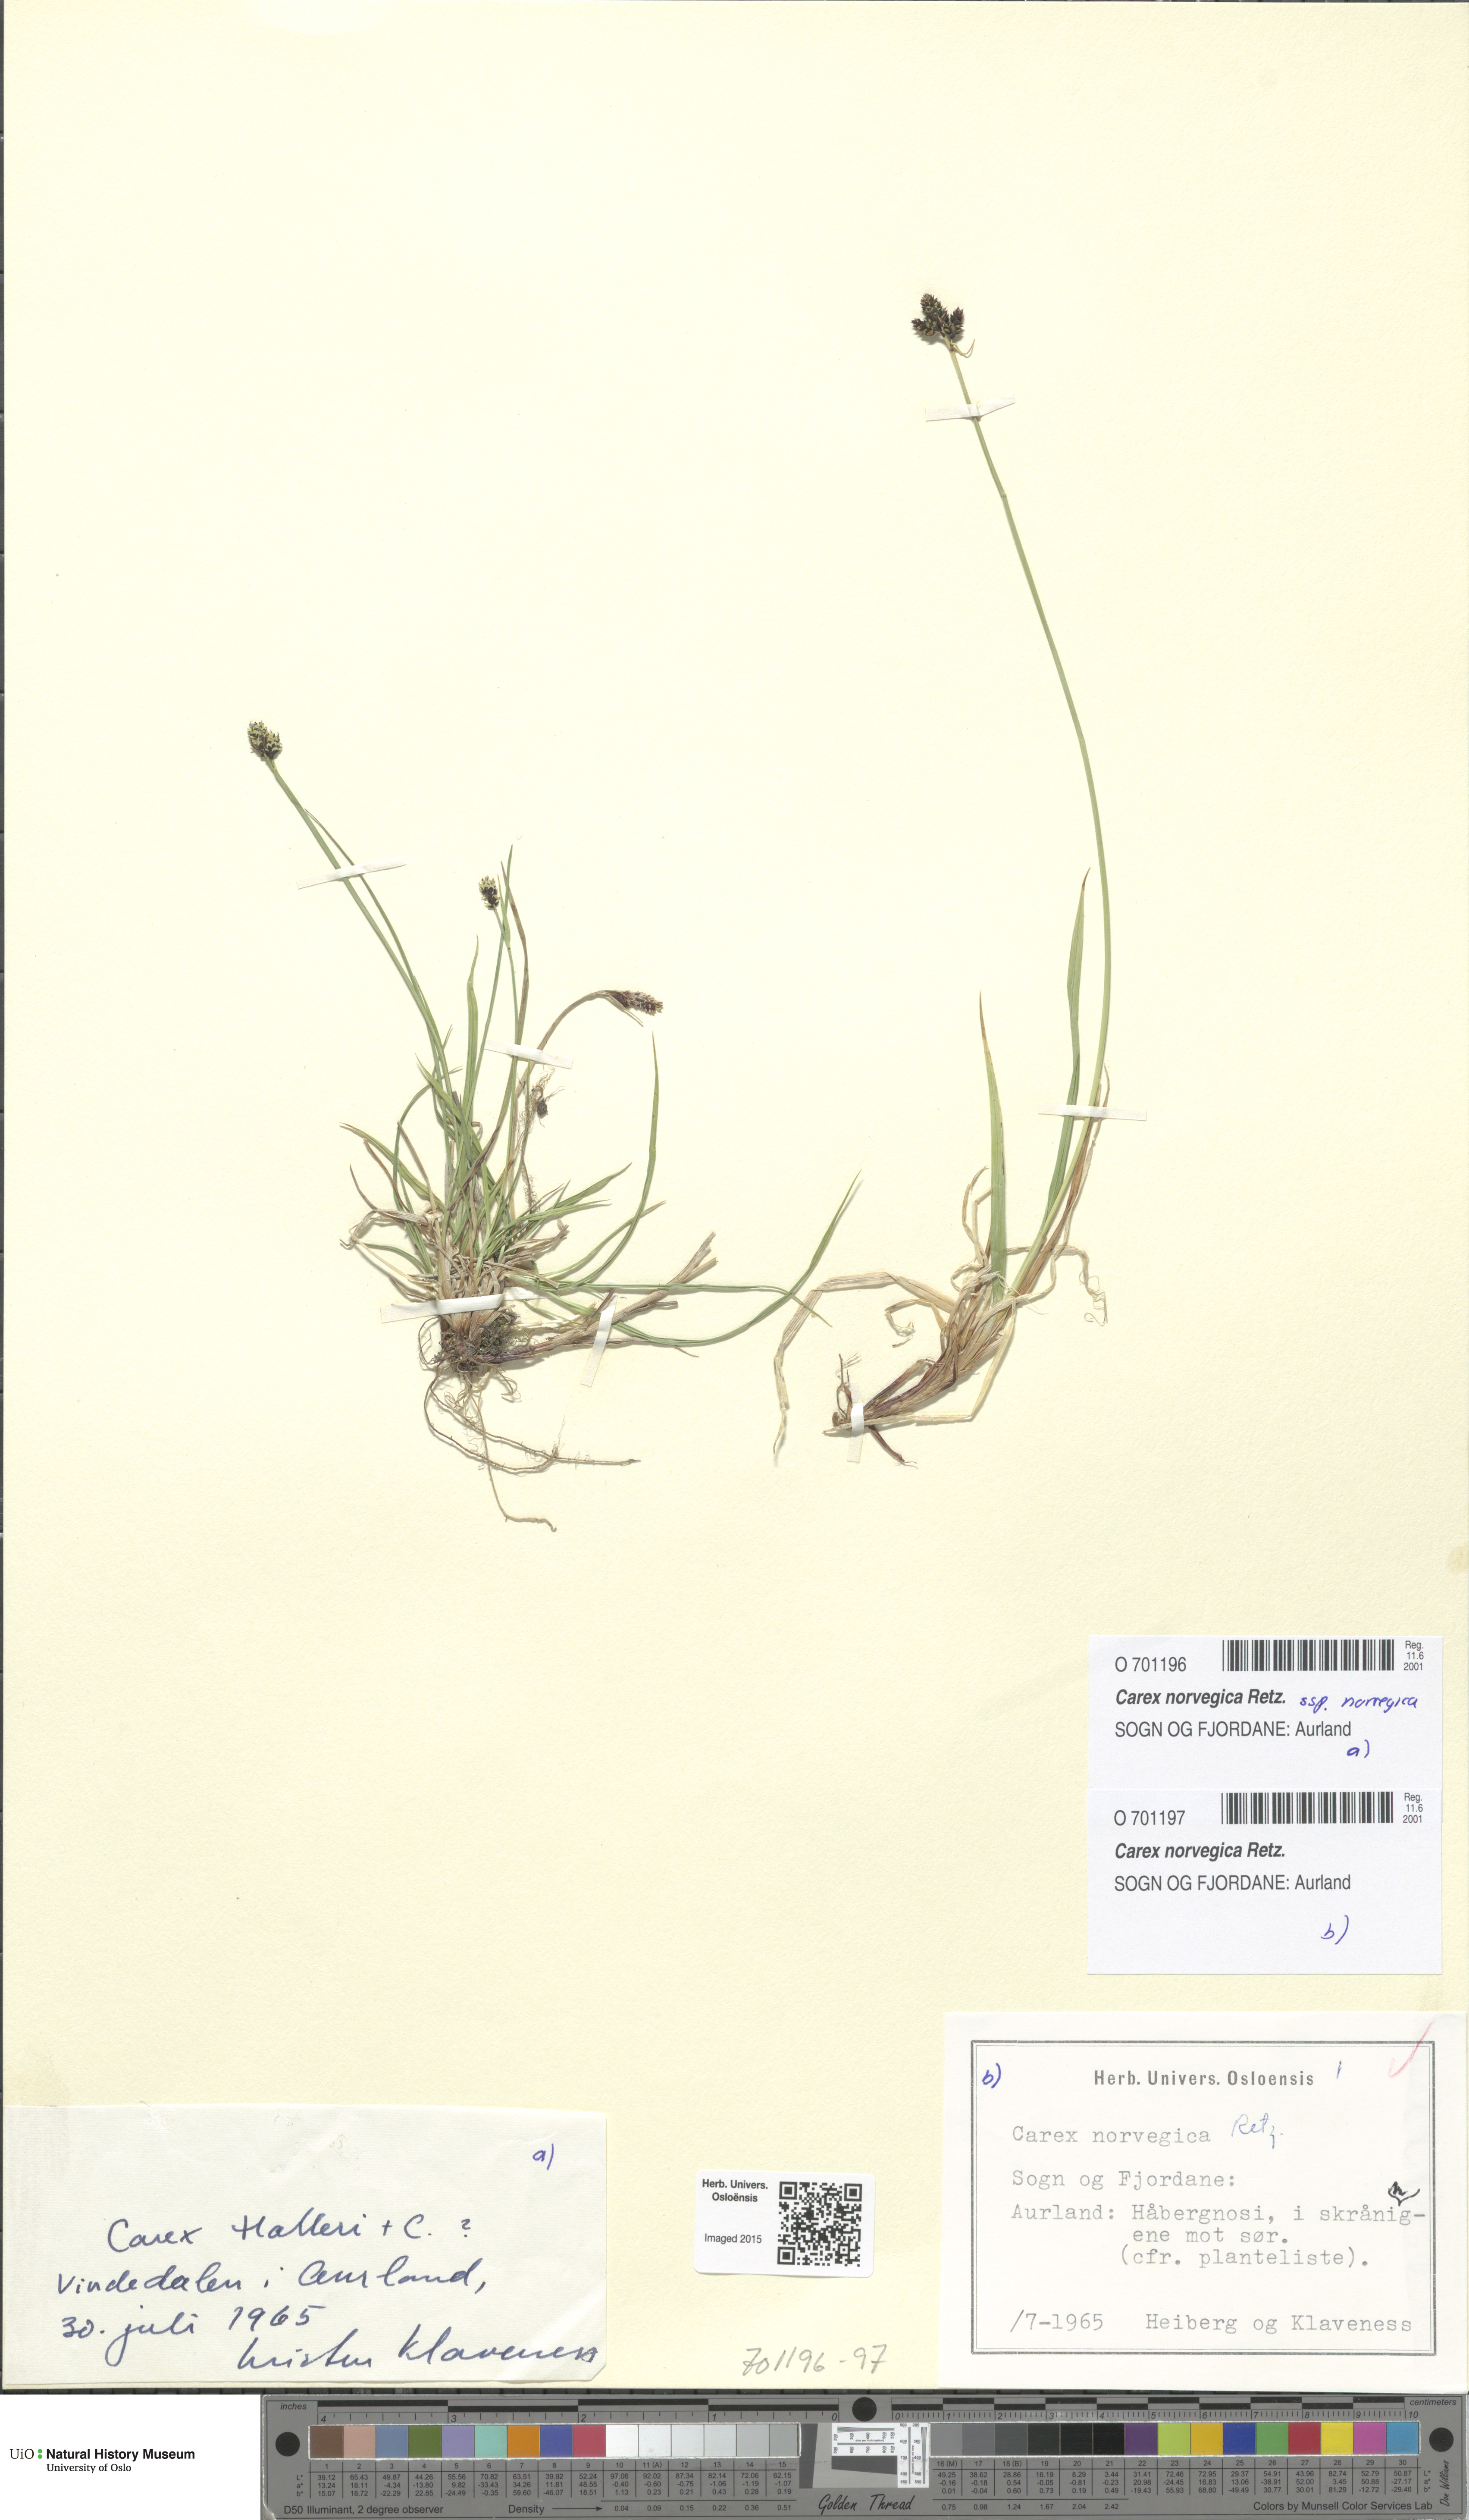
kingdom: Plantae
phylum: Tracheophyta
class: Liliopsida
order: Poales
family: Cyperaceae
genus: Carex
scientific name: Carex norvegica
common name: Close-headed alpine-sedge
